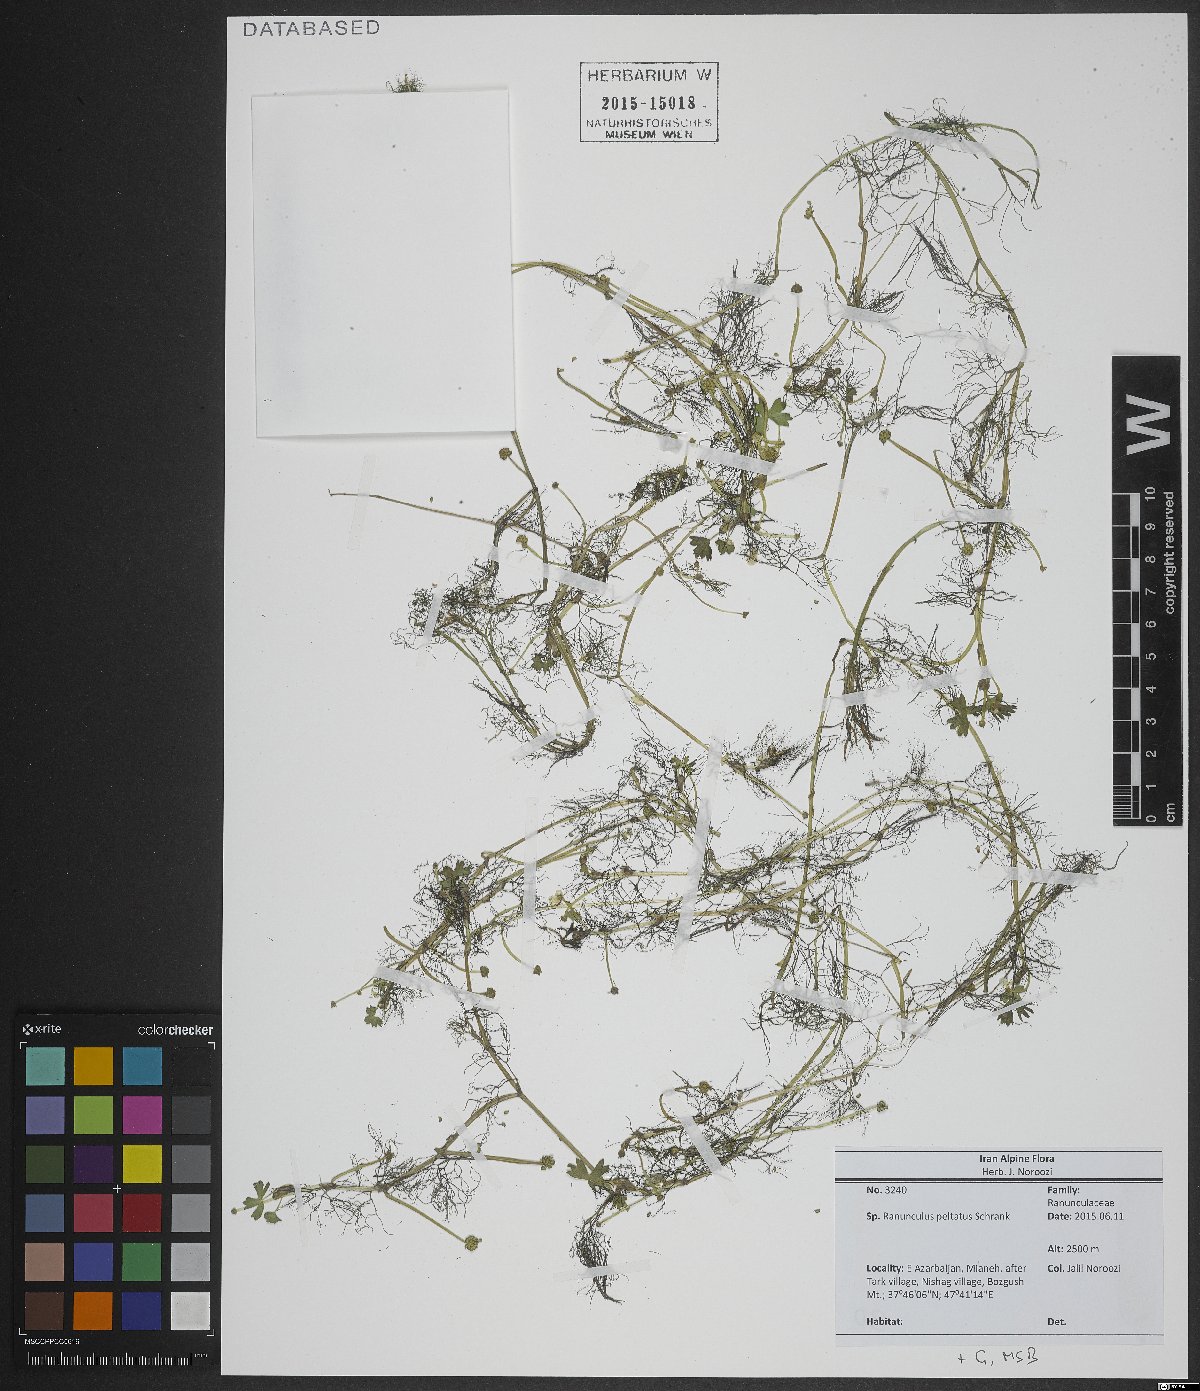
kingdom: Plantae
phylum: Tracheophyta
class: Magnoliopsida
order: Ranunculales
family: Ranunculaceae
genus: Ranunculus
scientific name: Ranunculus
